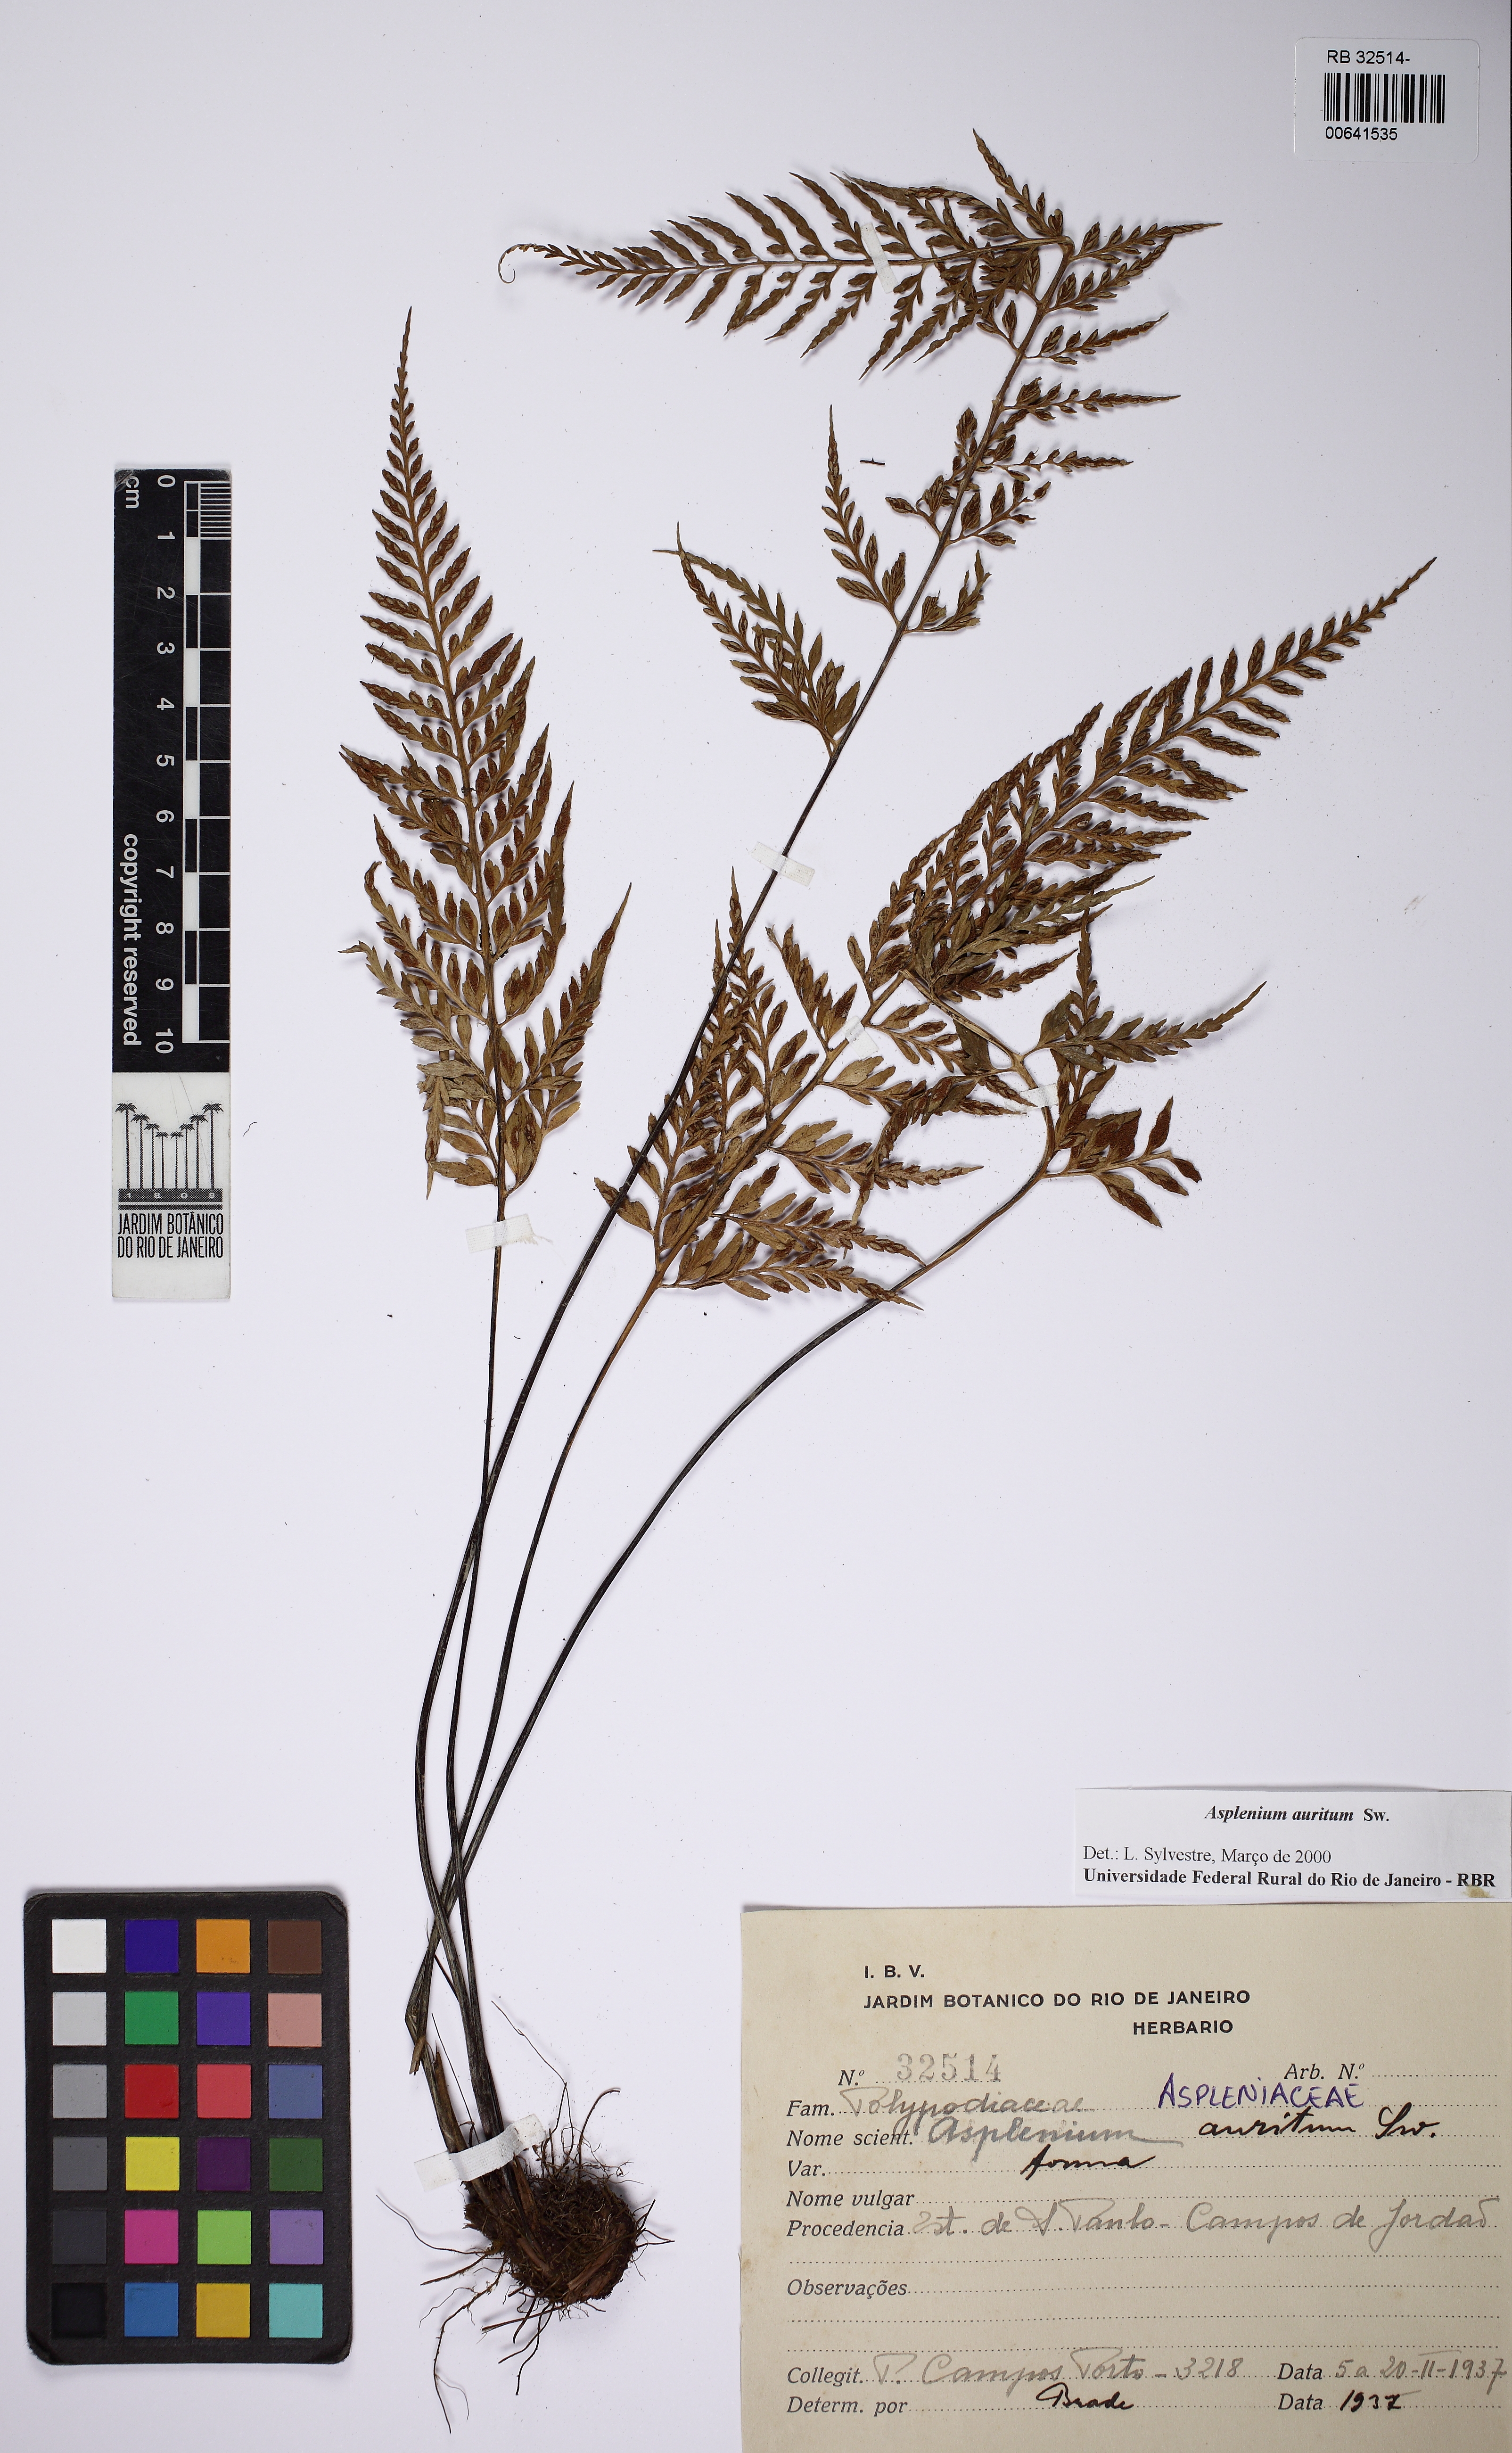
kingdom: Plantae
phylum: Tracheophyta
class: Polypodiopsida
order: Polypodiales
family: Aspleniaceae
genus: Asplenium
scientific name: Asplenium auritum
